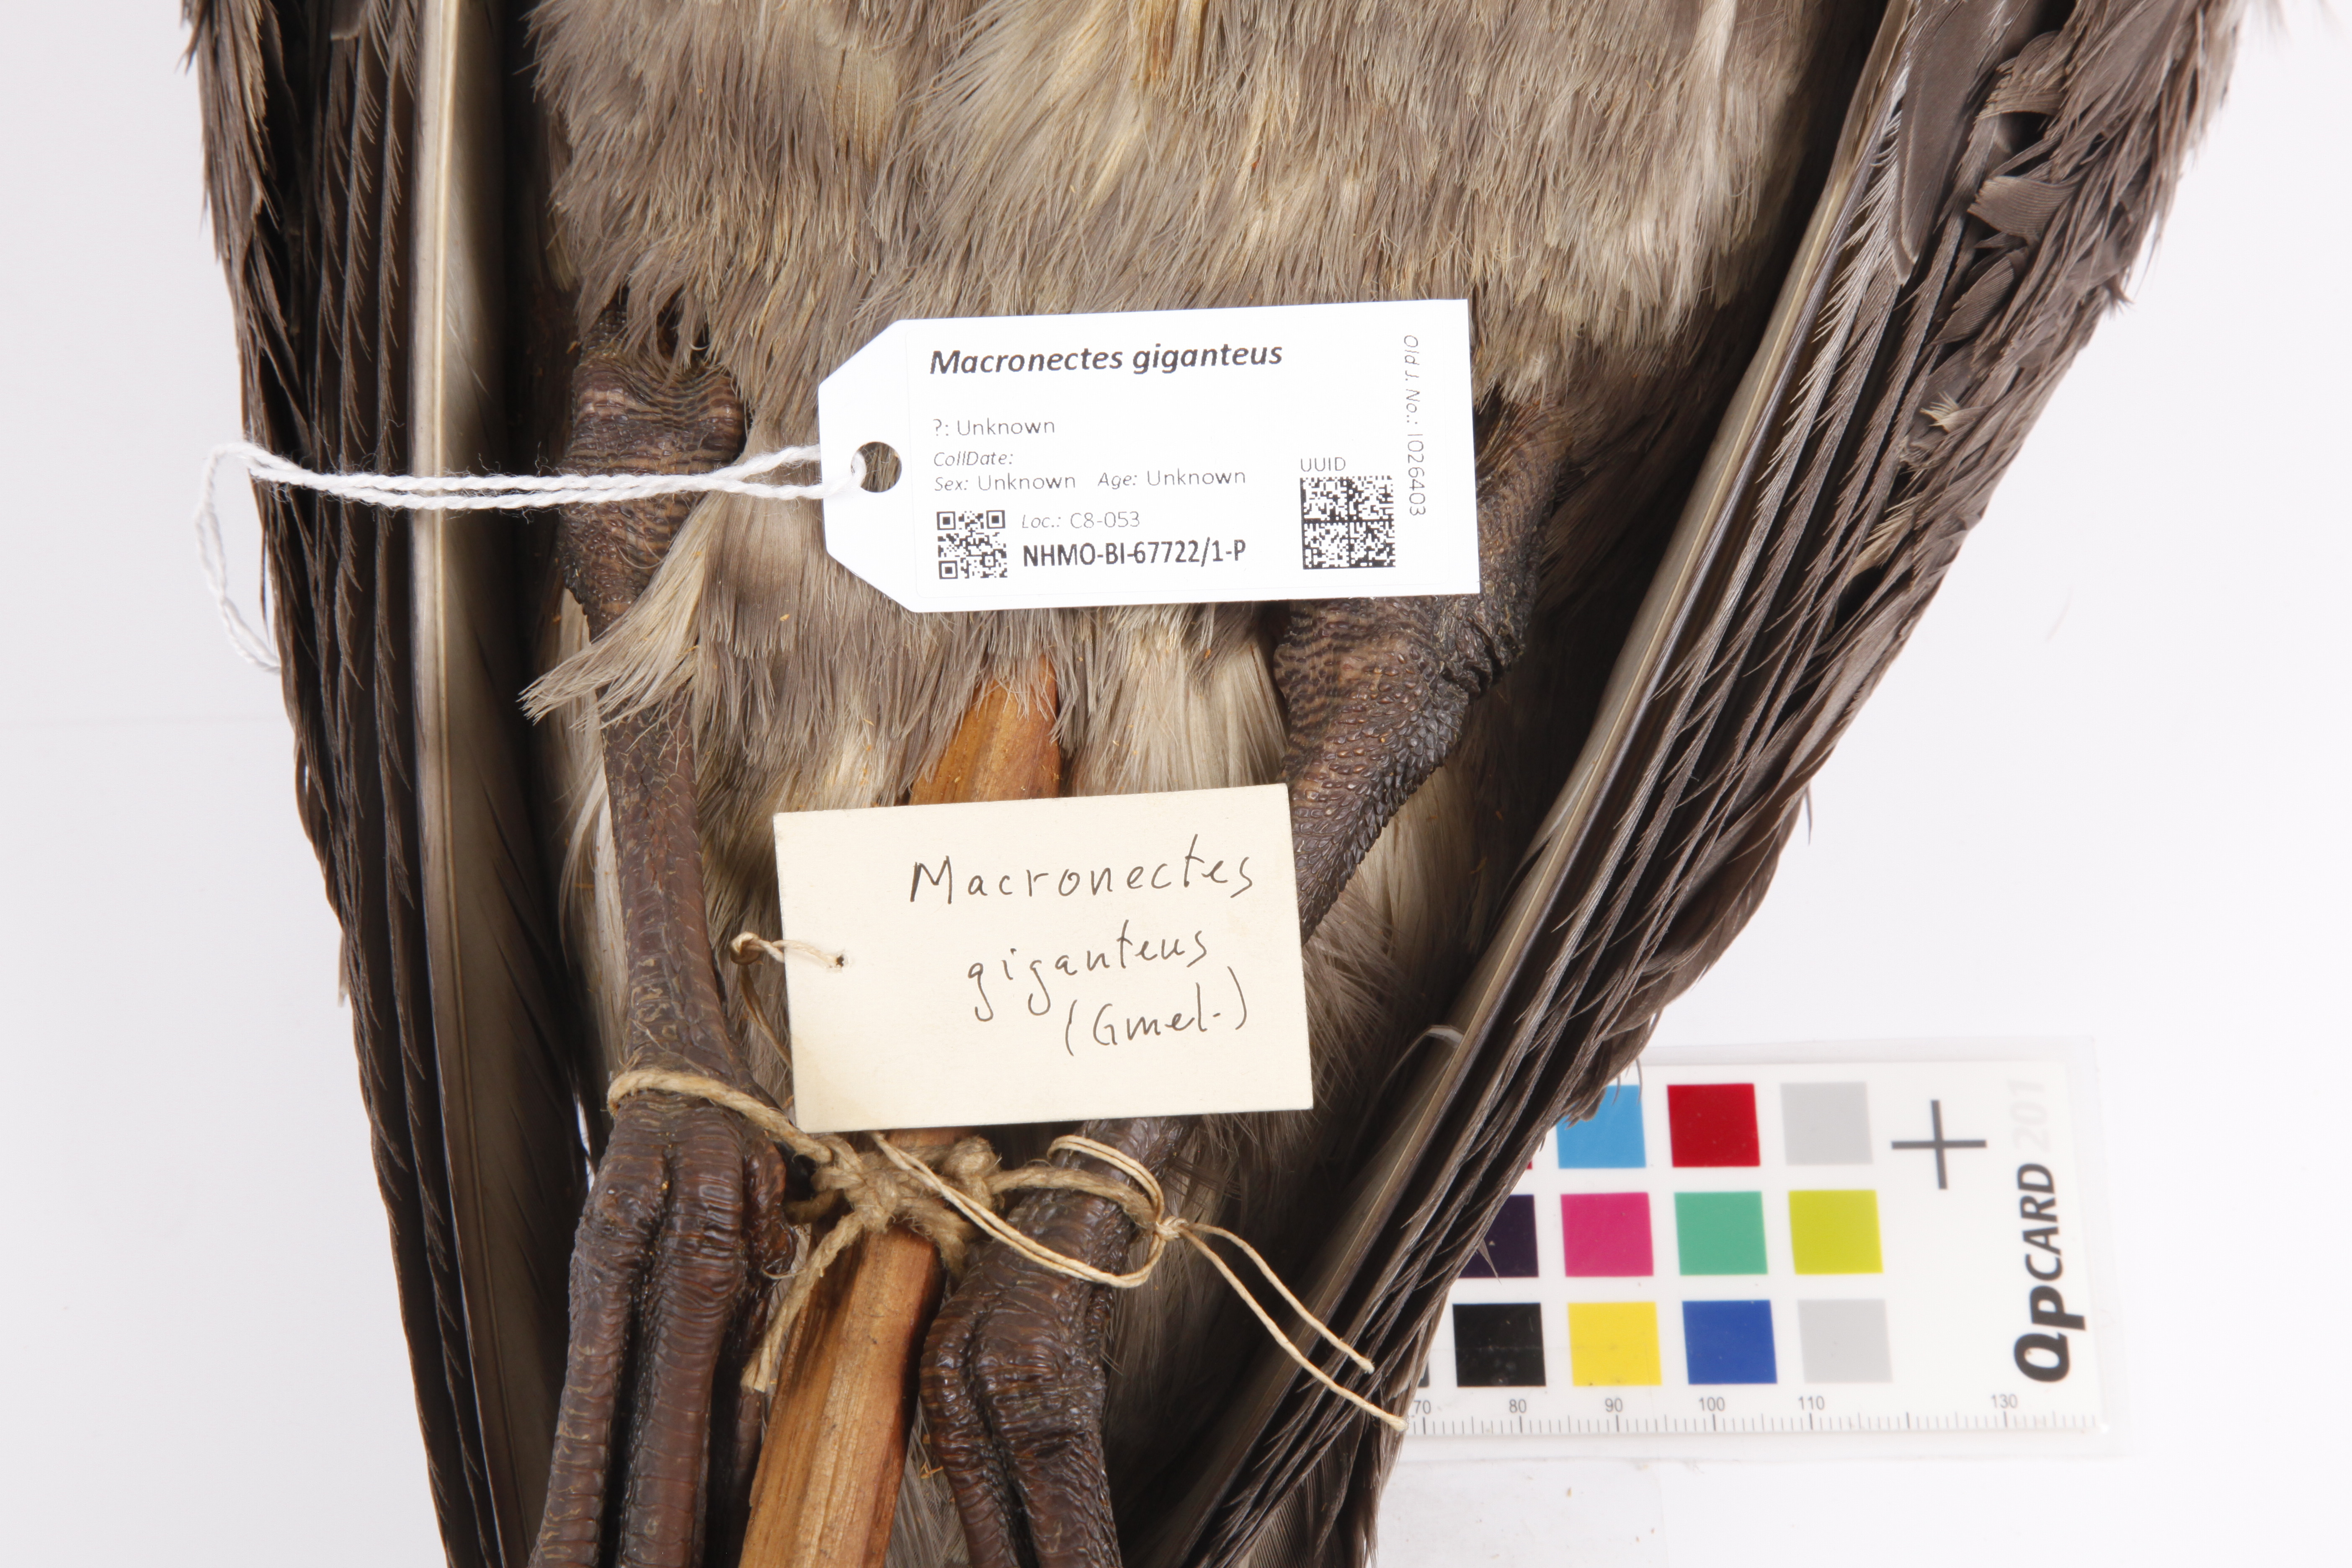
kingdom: Animalia
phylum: Chordata
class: Aves
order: Procellariiformes
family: Procellariidae
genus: Macronectes
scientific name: Macronectes giganteus
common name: Southern giant petrel
